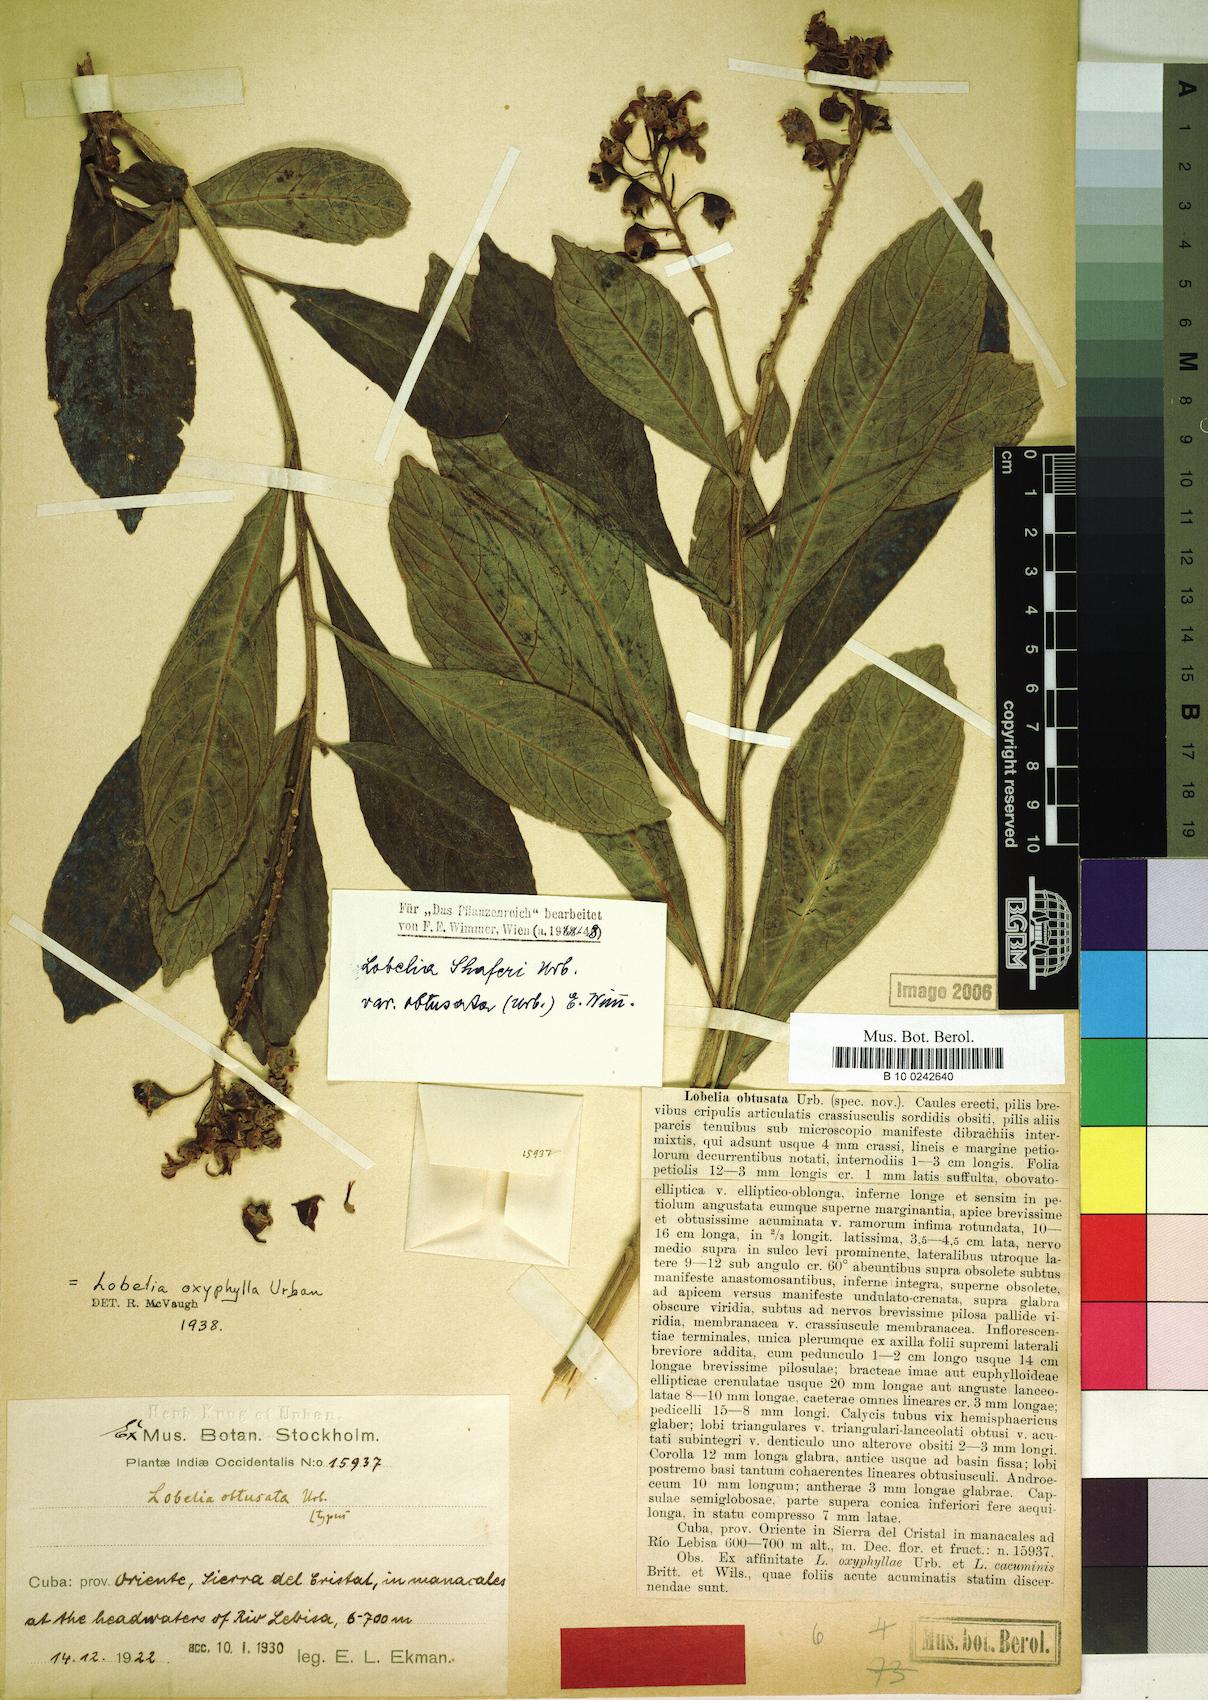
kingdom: Plantae
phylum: Tracheophyta
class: Magnoliopsida
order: Asterales
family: Campanulaceae
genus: Lobelia
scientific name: Lobelia shaferi
